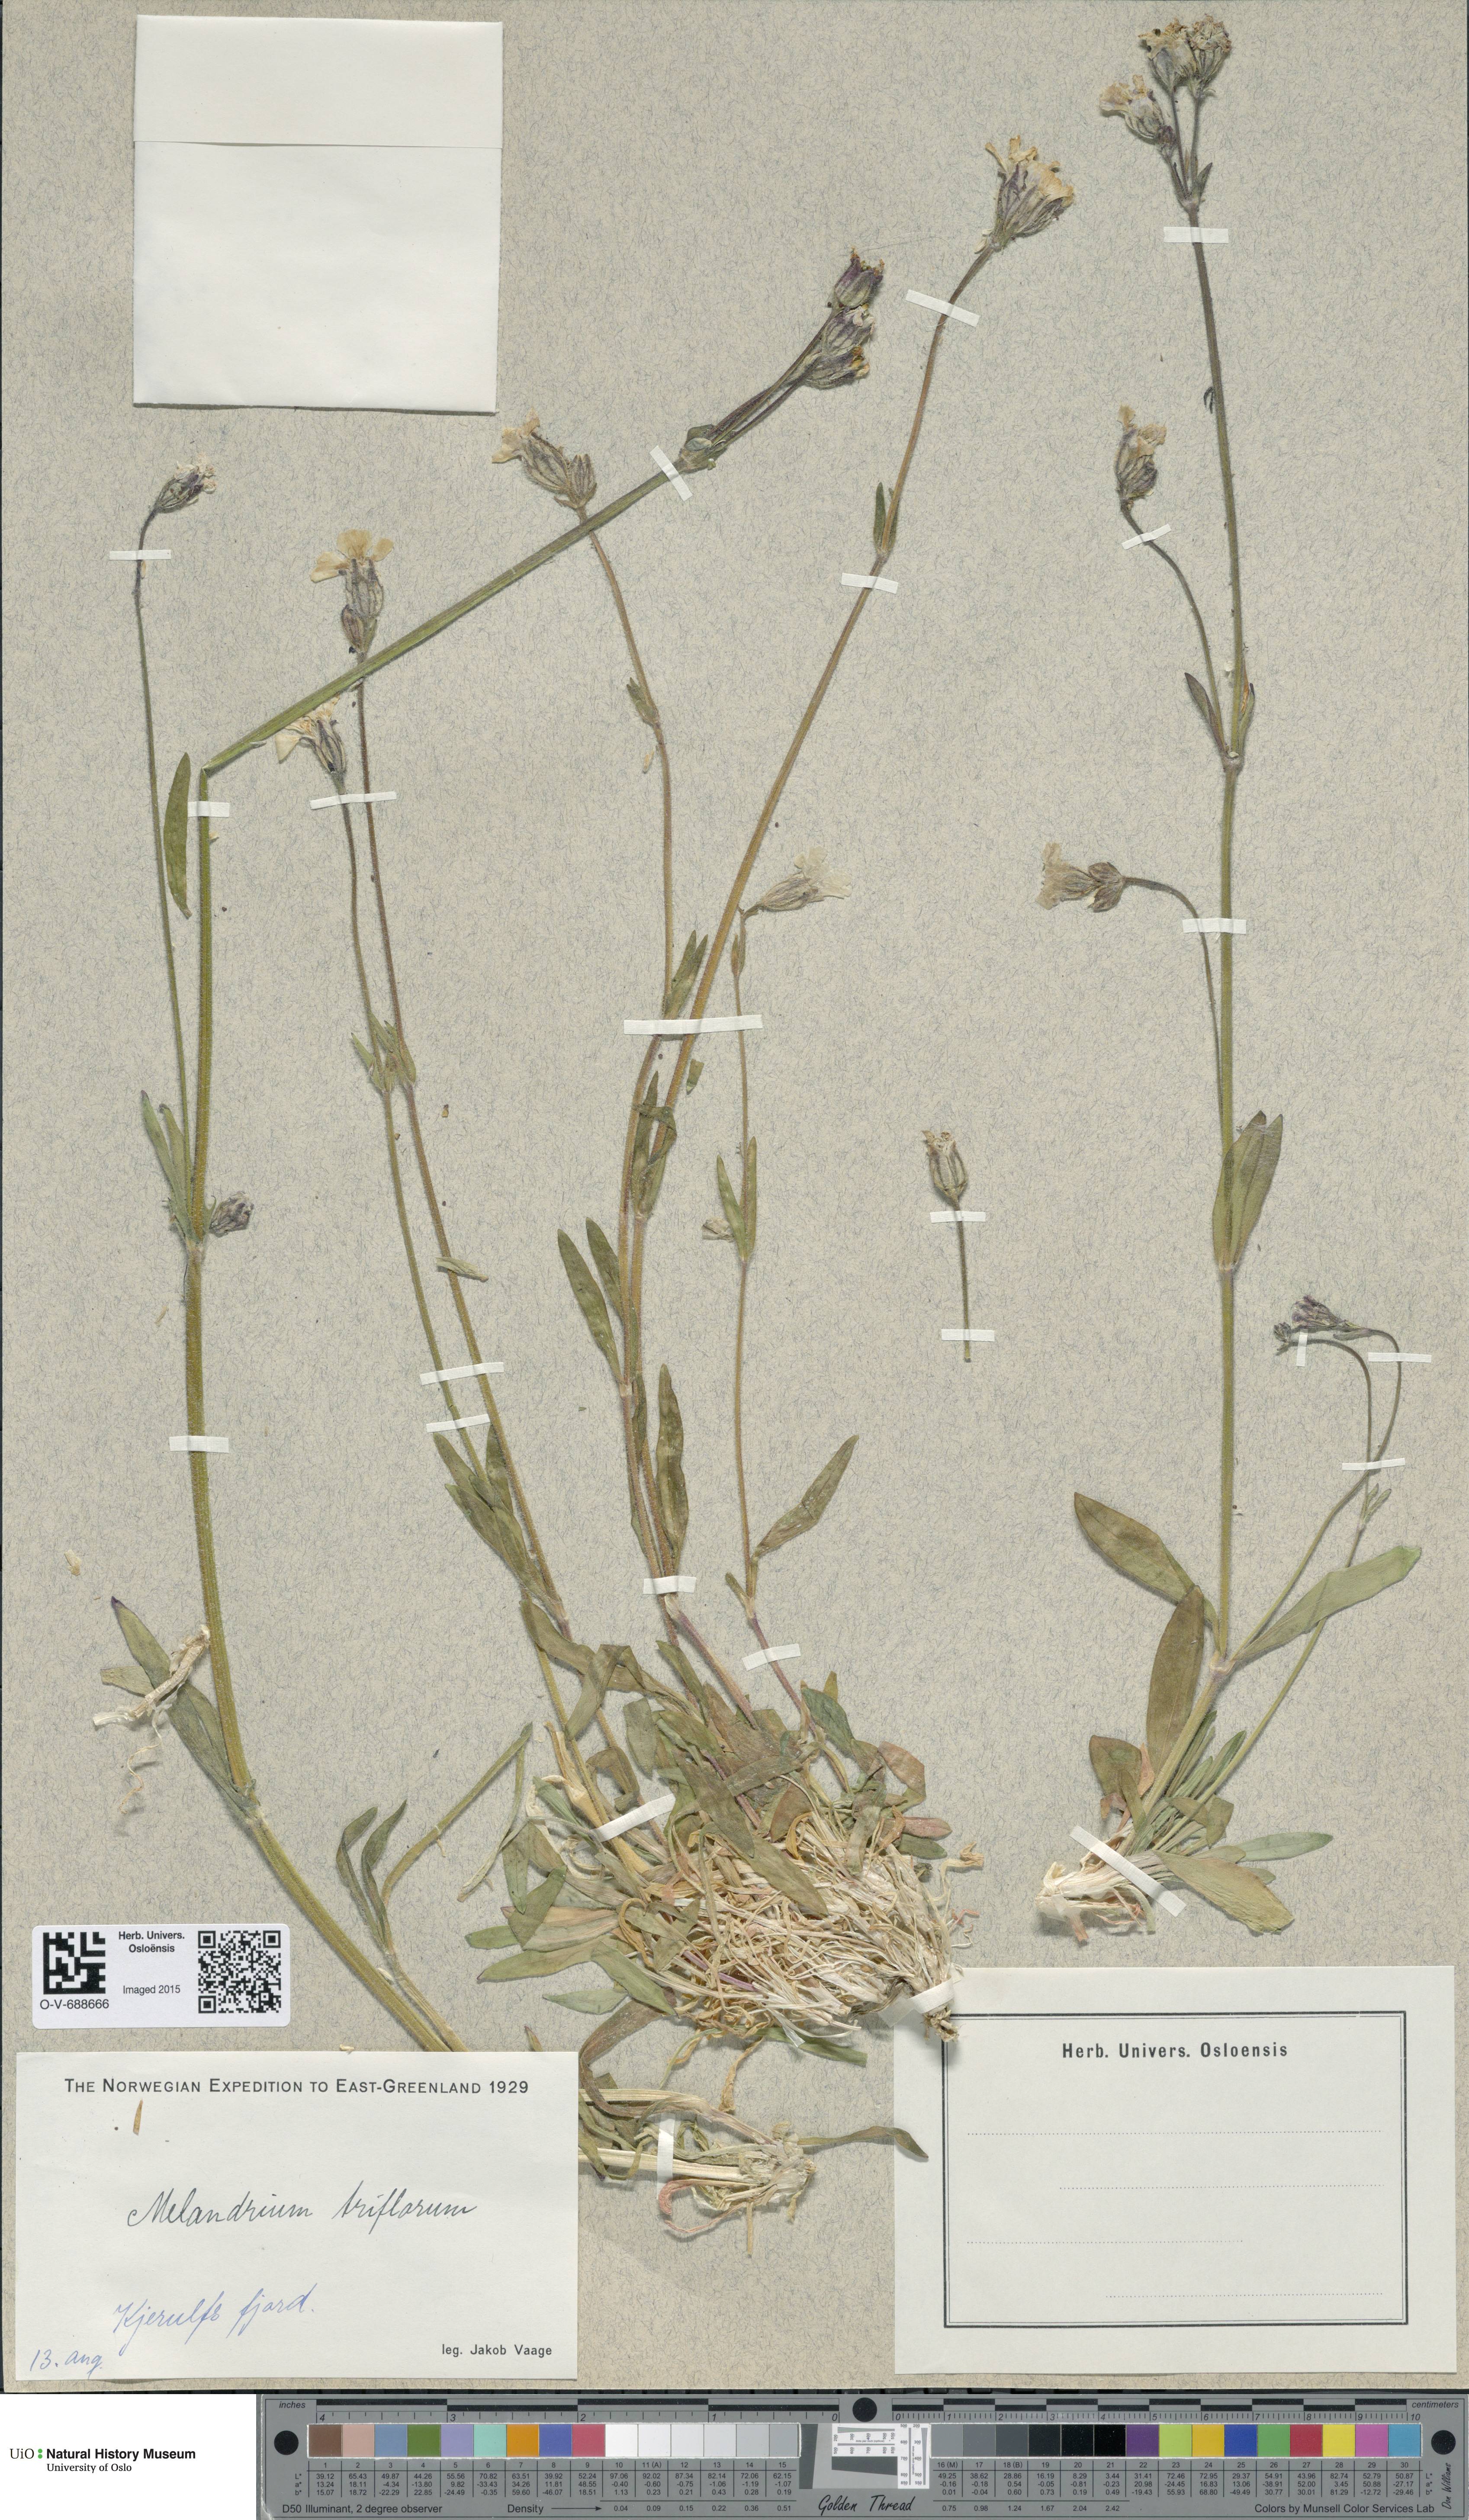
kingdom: Plantae
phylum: Tracheophyta
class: Magnoliopsida
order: Caryophyllales
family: Caryophyllaceae
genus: Silene
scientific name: Silene sorensenis
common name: Sorensen's campion
